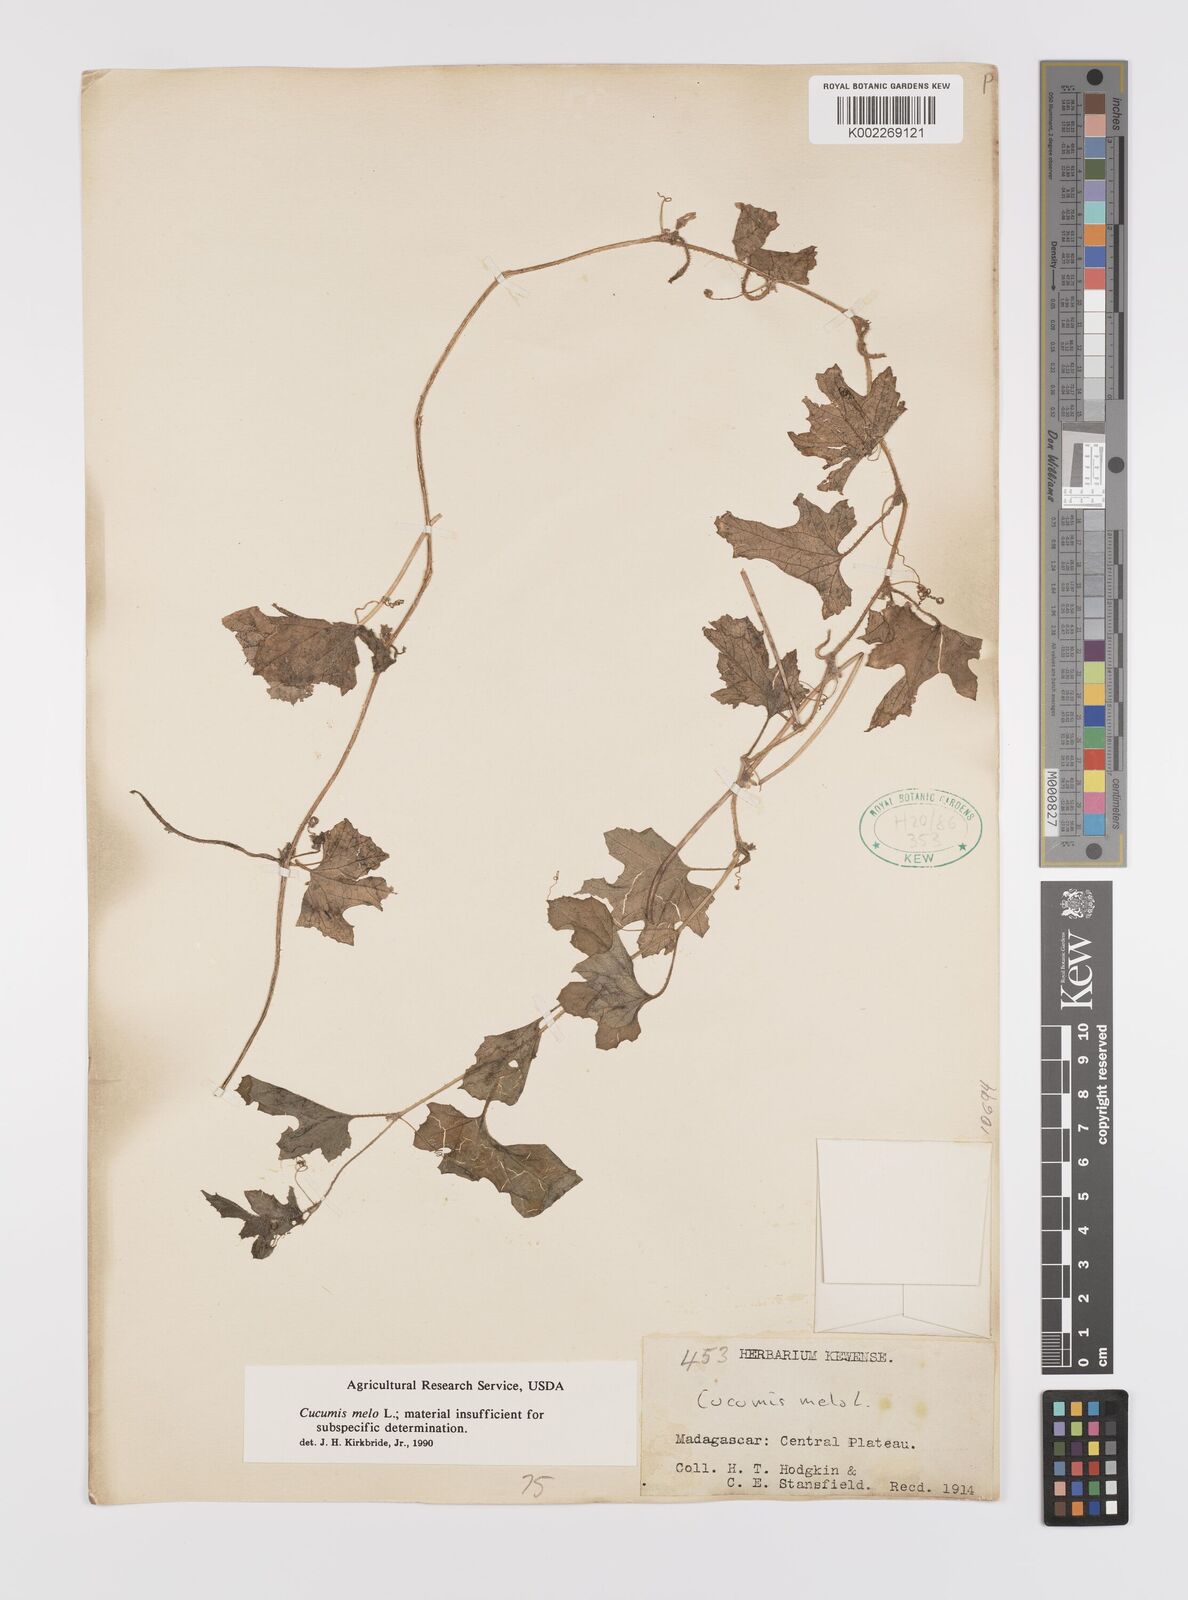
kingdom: Plantae
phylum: Tracheophyta
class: Magnoliopsida
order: Cucurbitales
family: Cucurbitaceae
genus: Cucumis
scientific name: Cucumis melo
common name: Melon
